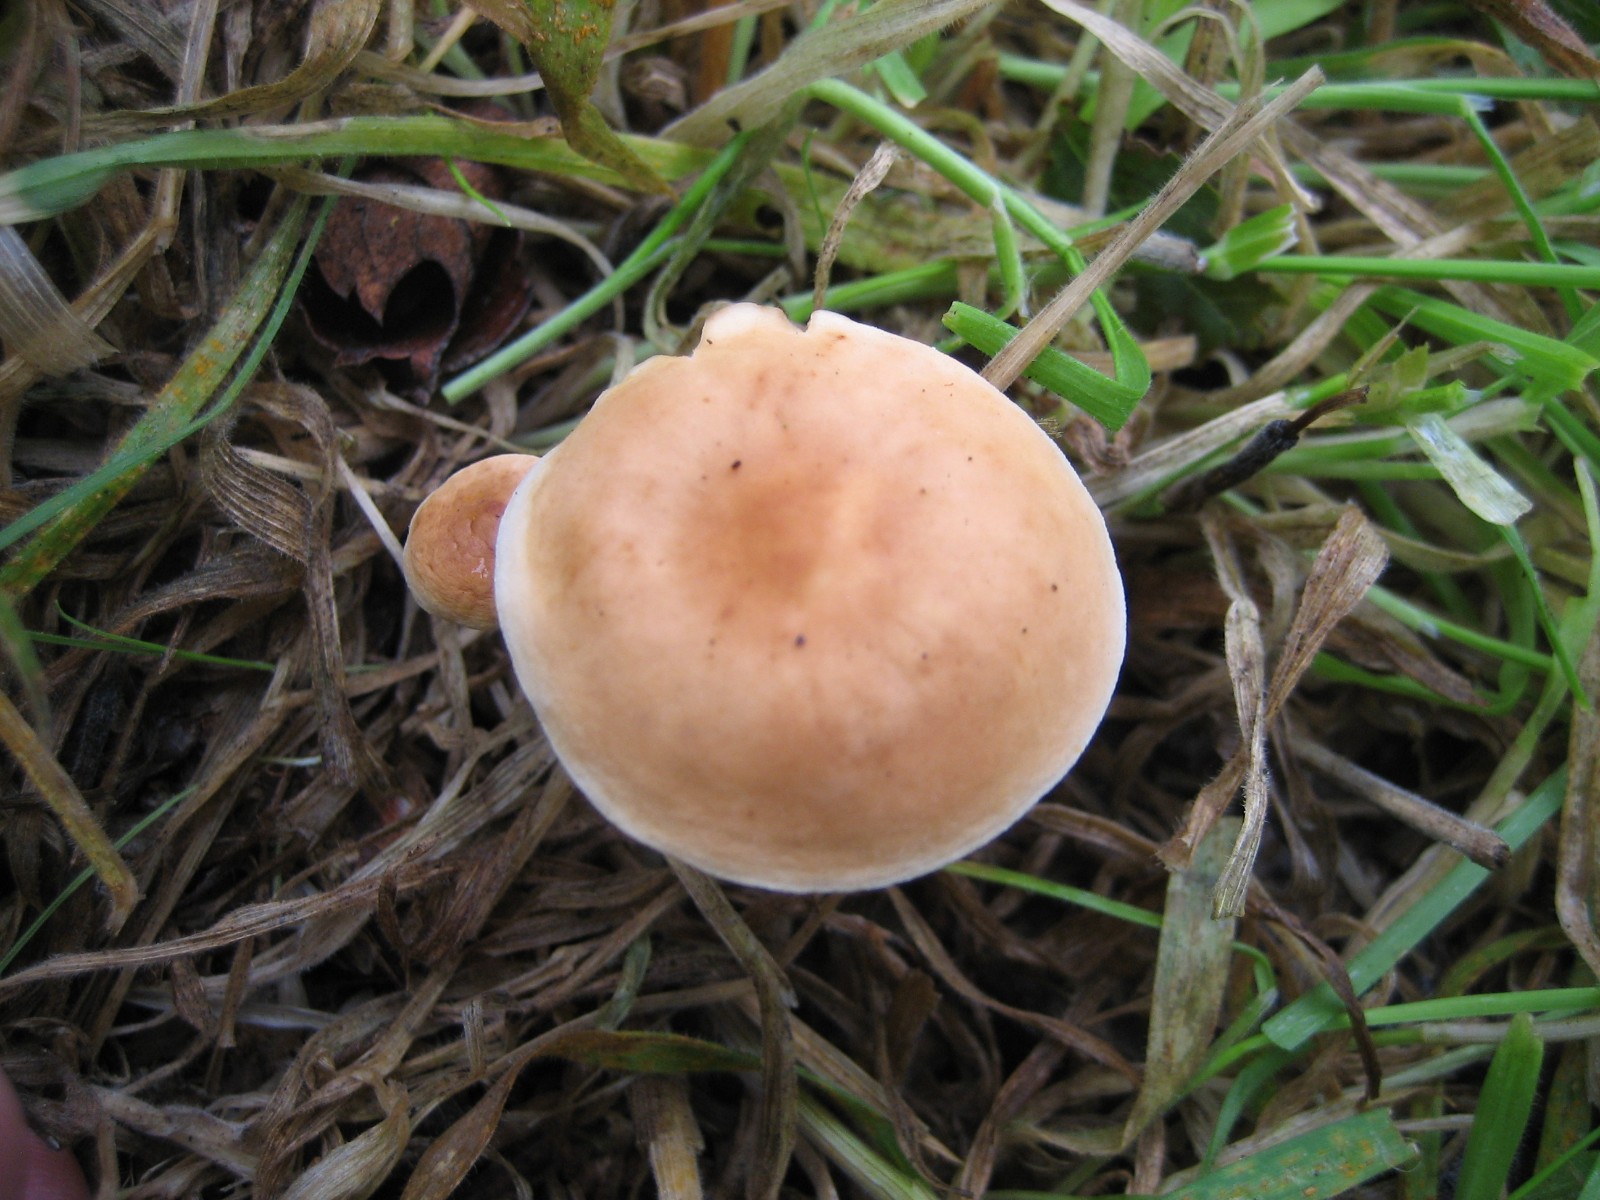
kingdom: Fungi
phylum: Basidiomycota
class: Agaricomycetes
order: Agaricales
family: Omphalotaceae
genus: Gymnopus
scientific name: Gymnopus
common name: fladhat
